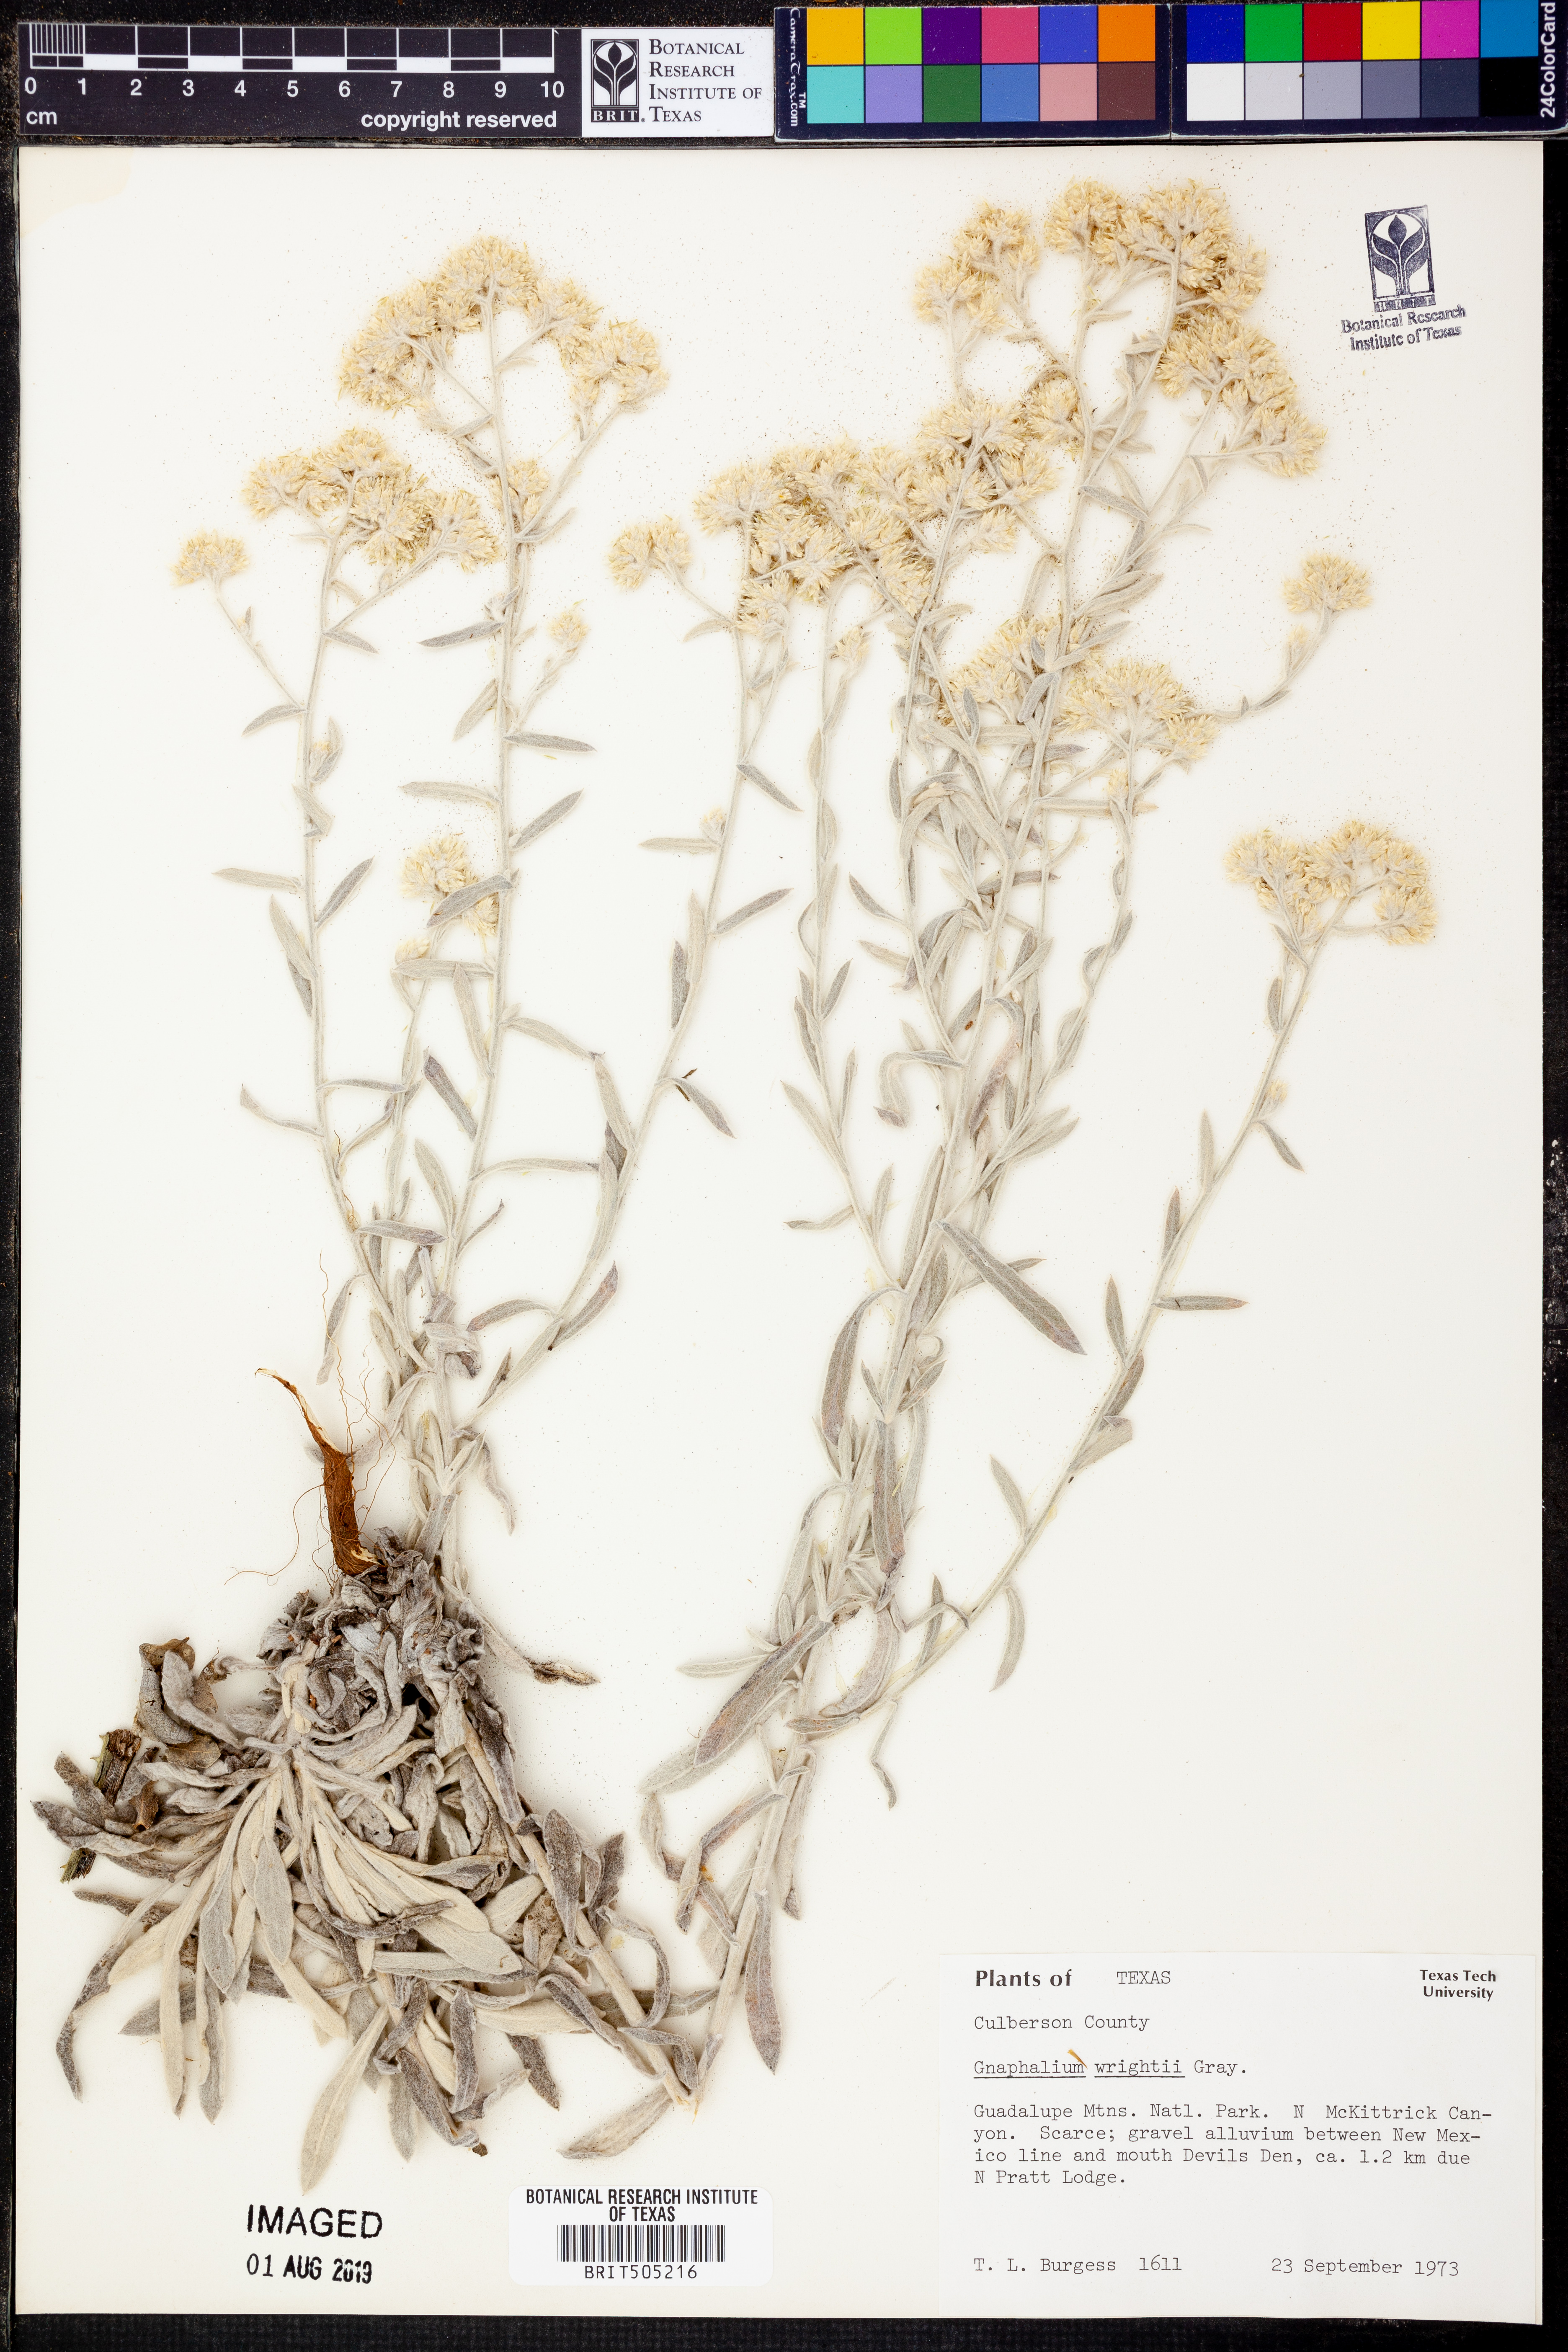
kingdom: Plantae
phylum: Tracheophyta
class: Magnoliopsida
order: Asterales
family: Asteraceae
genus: Pseudognaphalium
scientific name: Pseudognaphalium canescens
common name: Wright's rabbit-tobacco
